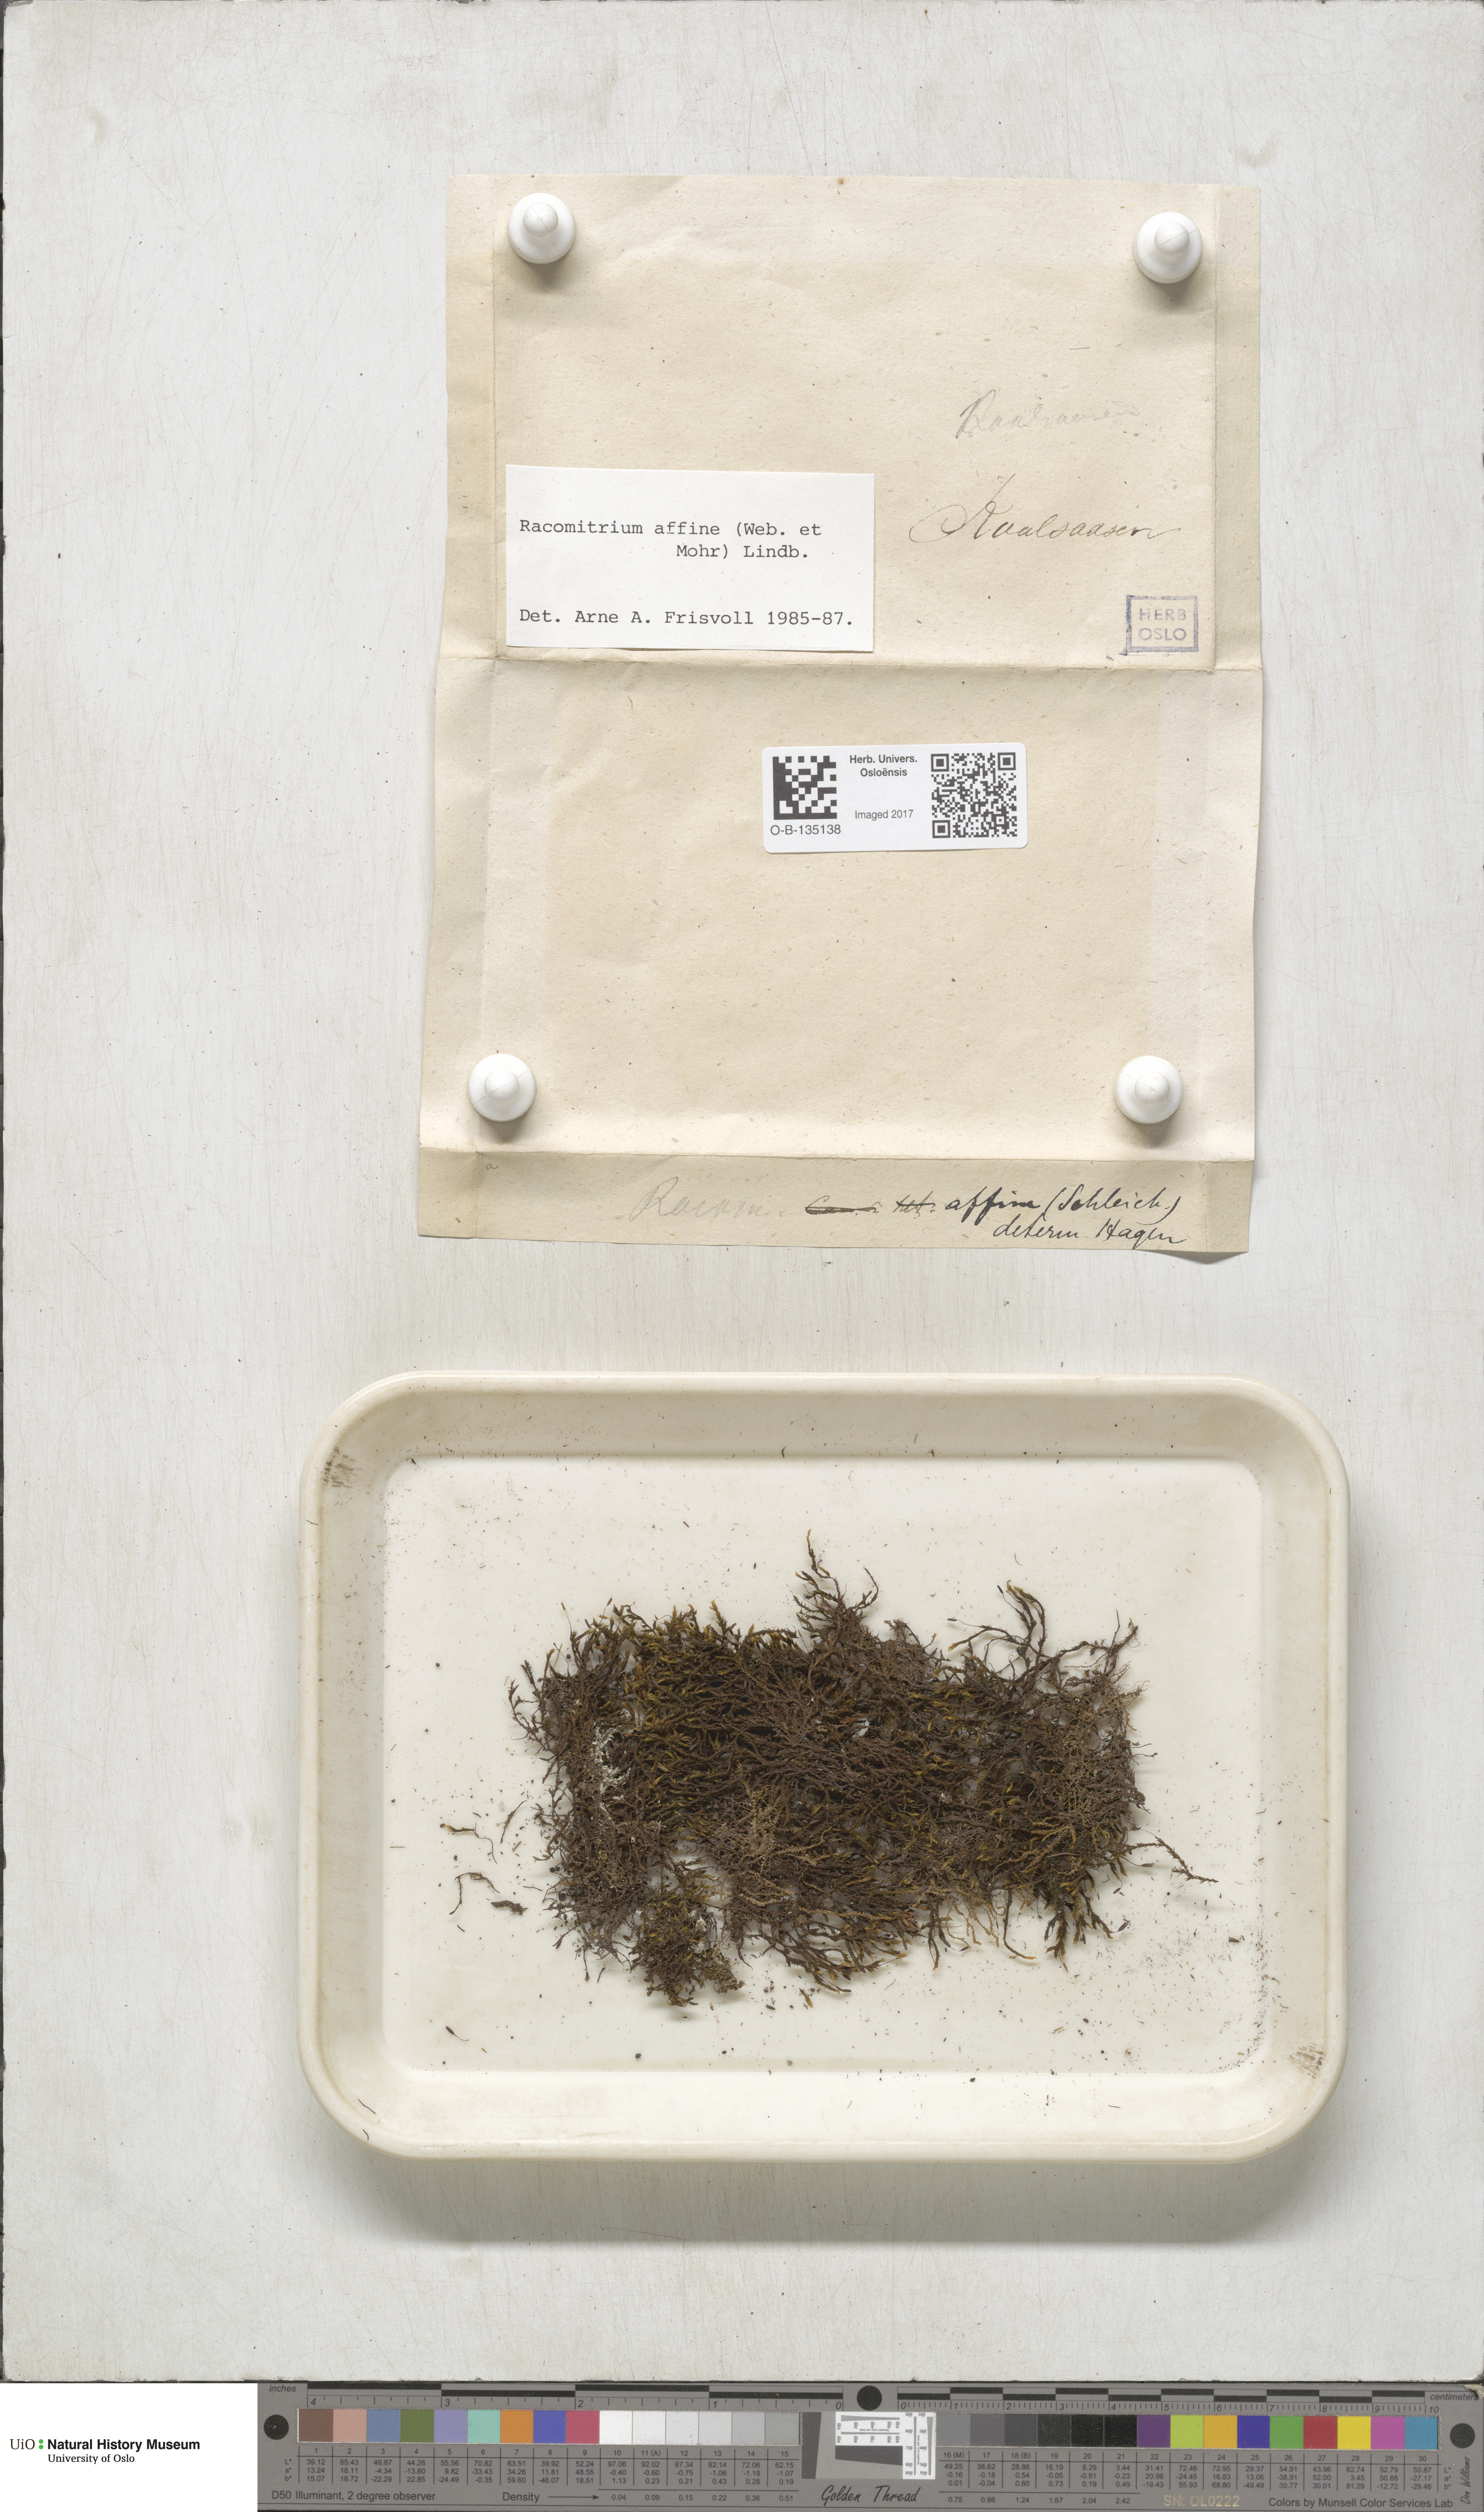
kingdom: Plantae
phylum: Bryophyta
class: Bryopsida
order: Grimmiales
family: Grimmiaceae
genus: Bucklandiella
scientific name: Bucklandiella affinis
